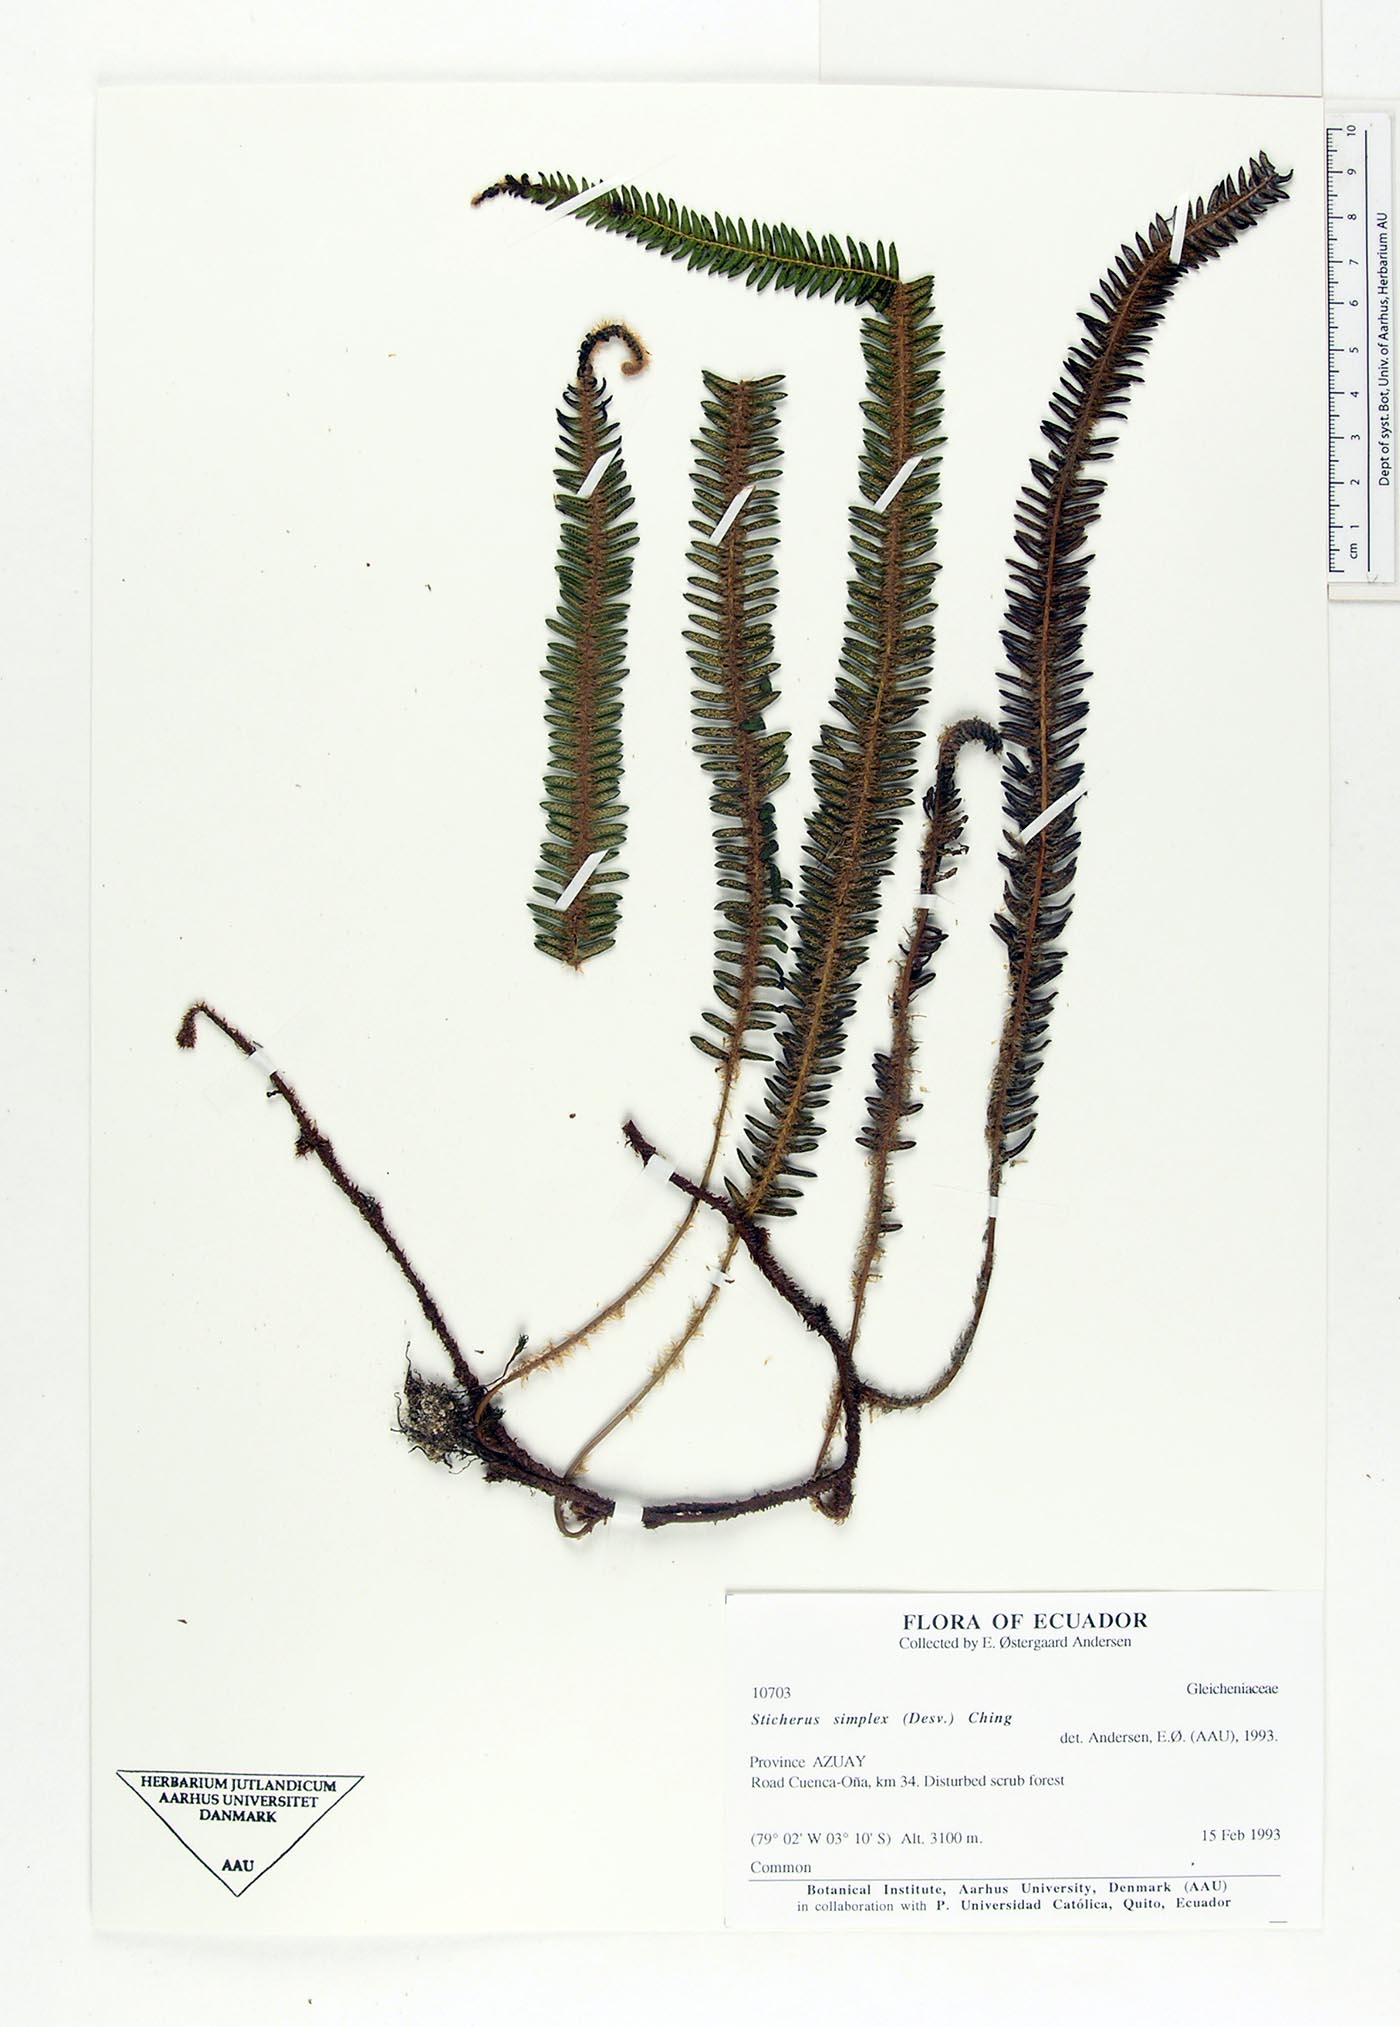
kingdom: Plantae
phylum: Tracheophyta
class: Polypodiopsida
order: Gleicheniales
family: Gleicheniaceae
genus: Sticherus
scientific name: Sticherus simplex
